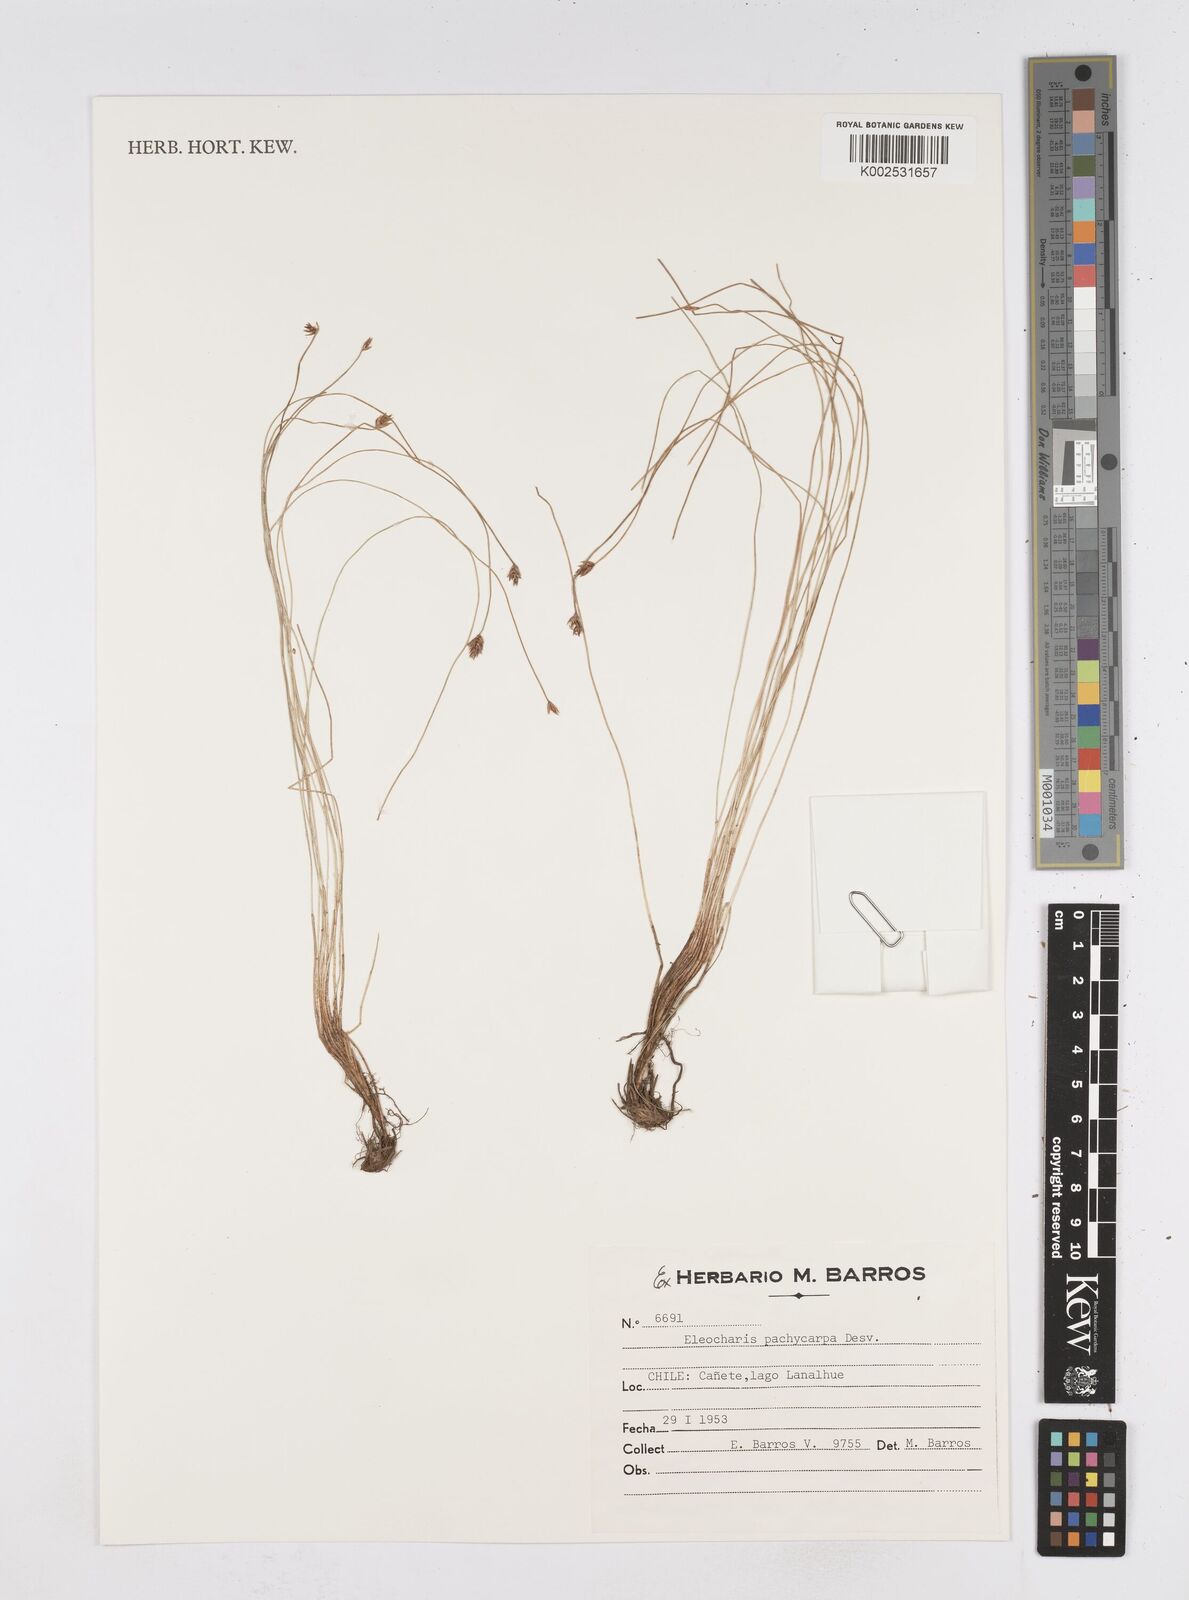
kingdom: Plantae
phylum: Tracheophyta
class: Liliopsida
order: Poales
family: Cyperaceae
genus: Eleocharis
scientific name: Eleocharis pachycarpa
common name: Black sand spikerush
